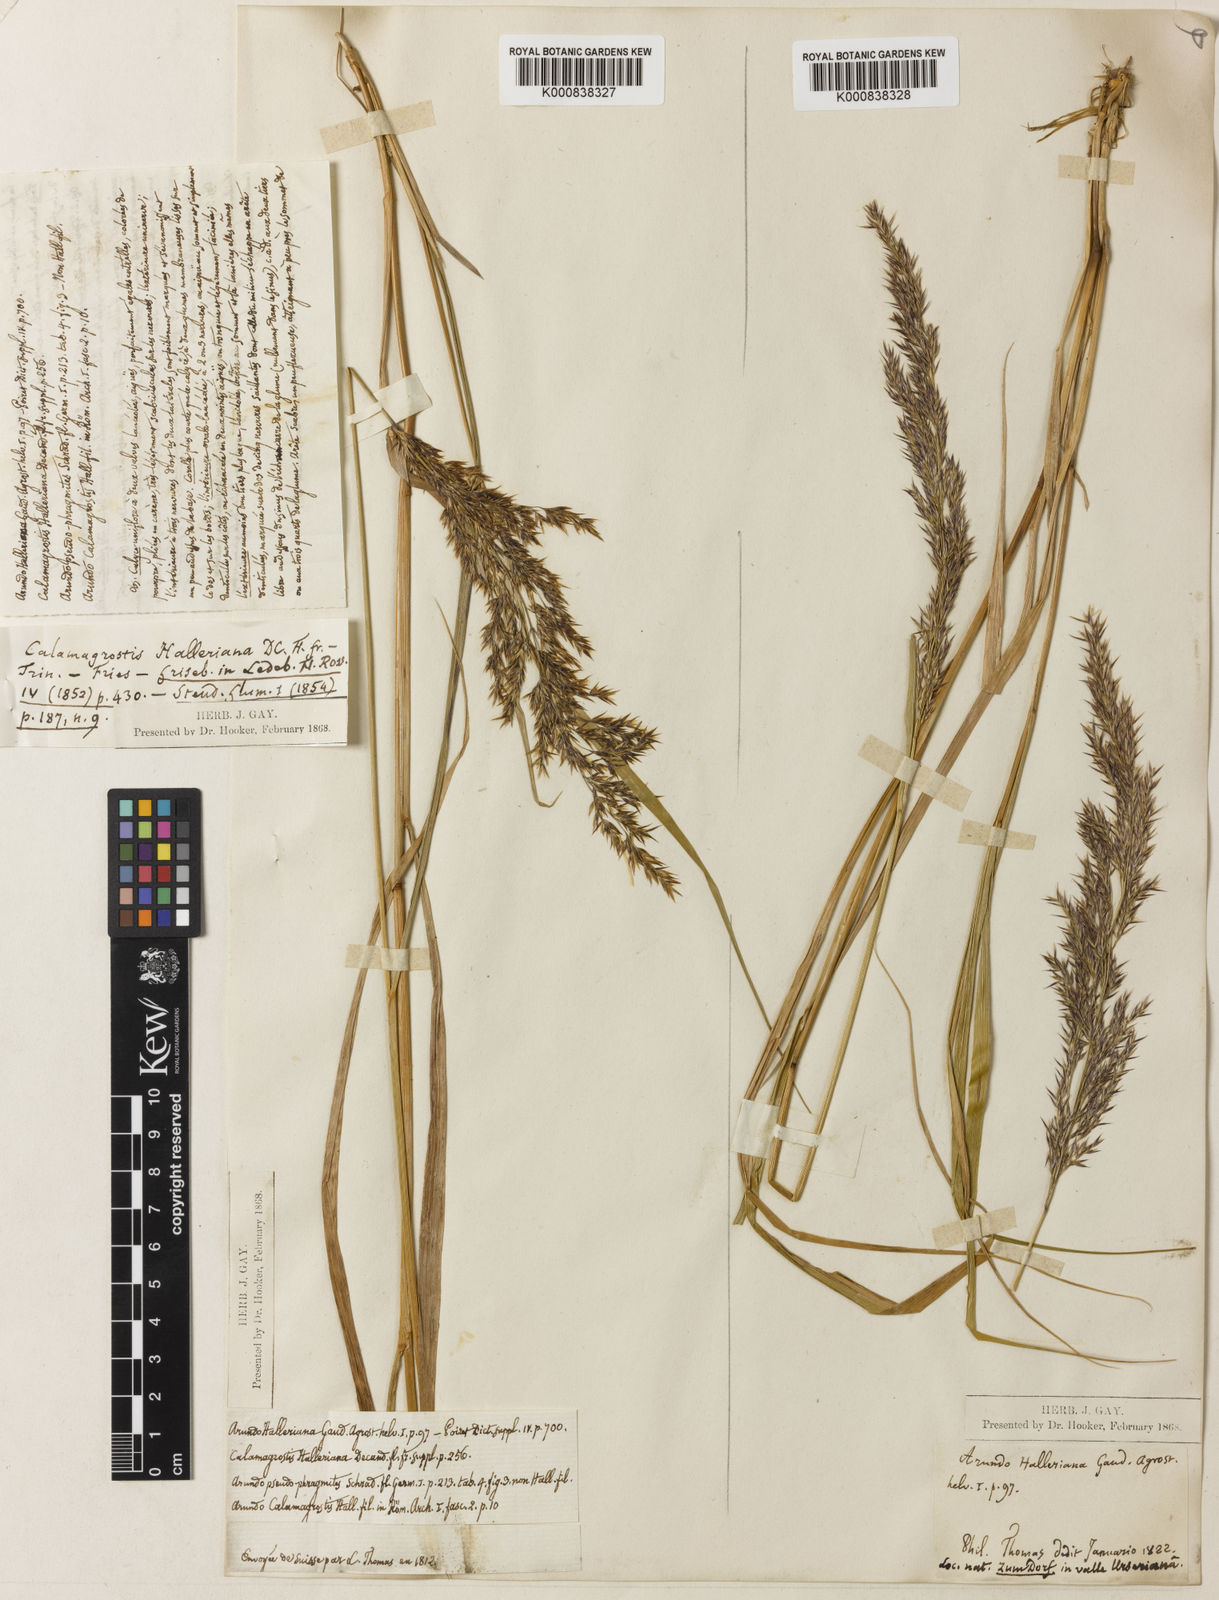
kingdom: Plantae
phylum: Tracheophyta
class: Liliopsida
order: Poales
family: Poaceae
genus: Calamagrostis
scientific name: Calamagrostis villosa
